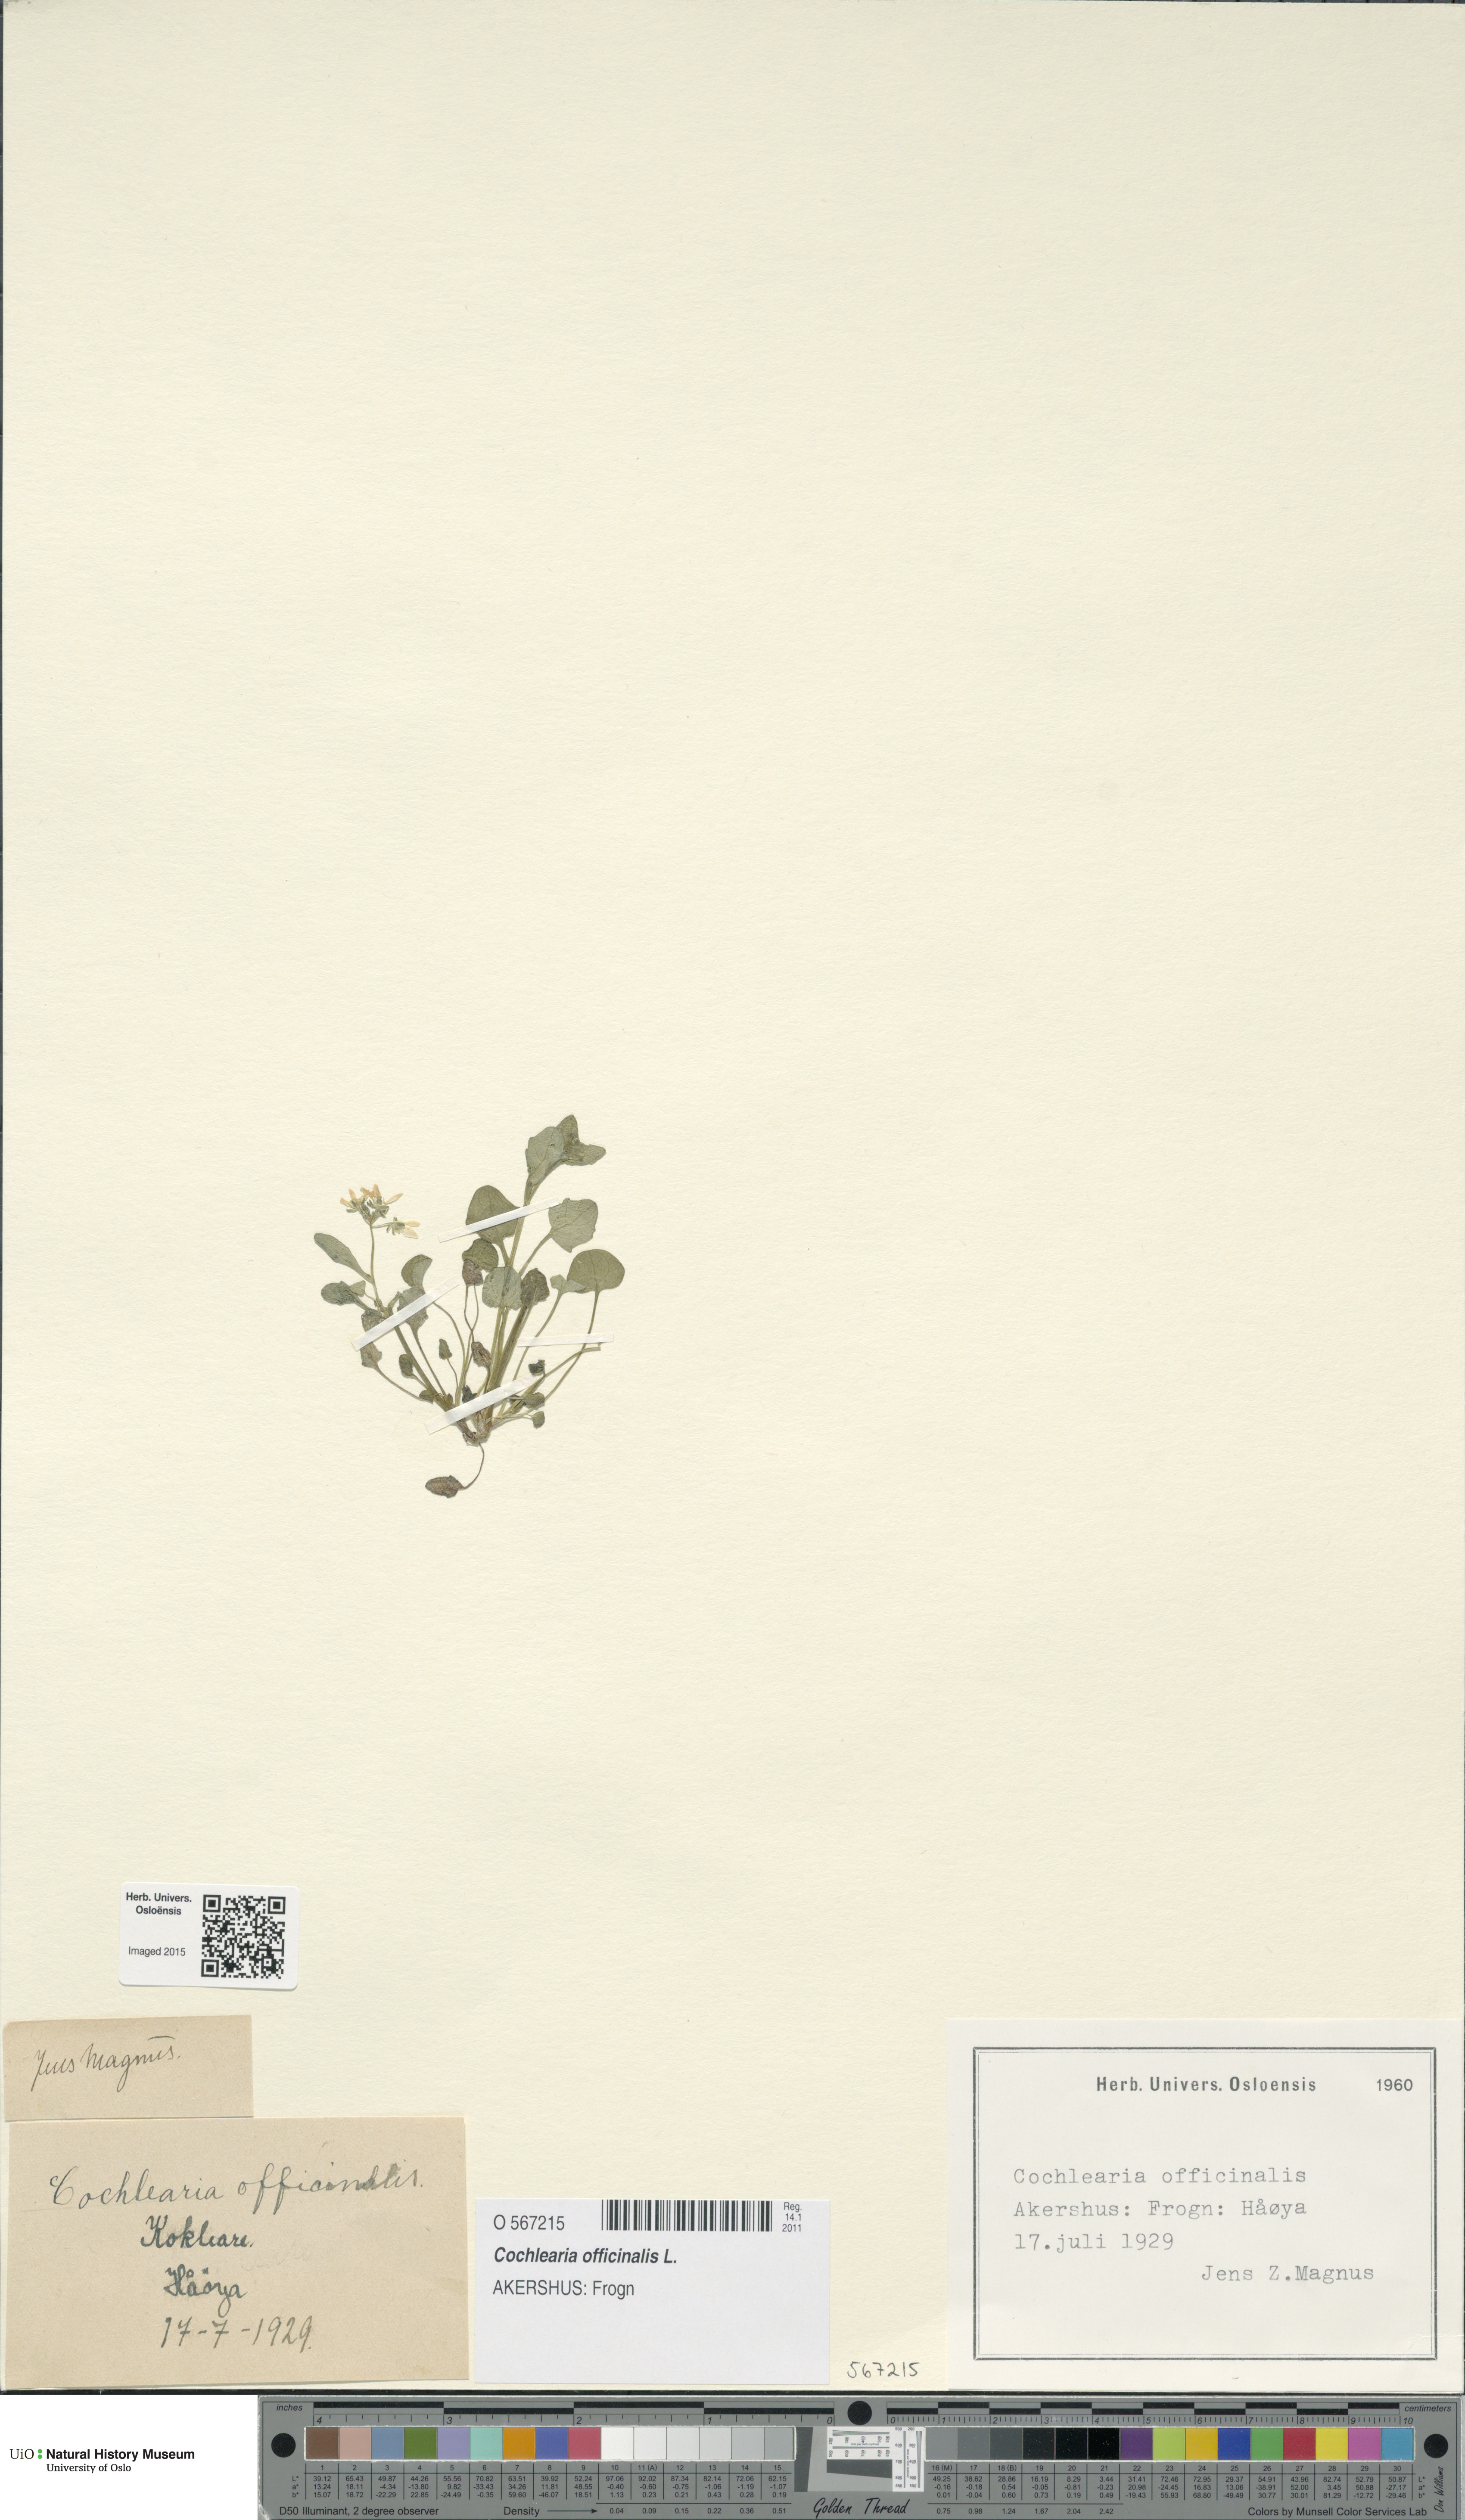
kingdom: Plantae
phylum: Tracheophyta
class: Magnoliopsida
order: Brassicales
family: Brassicaceae
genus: Cochlearia
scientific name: Cochlearia officinalis
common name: Scurvy-grass
